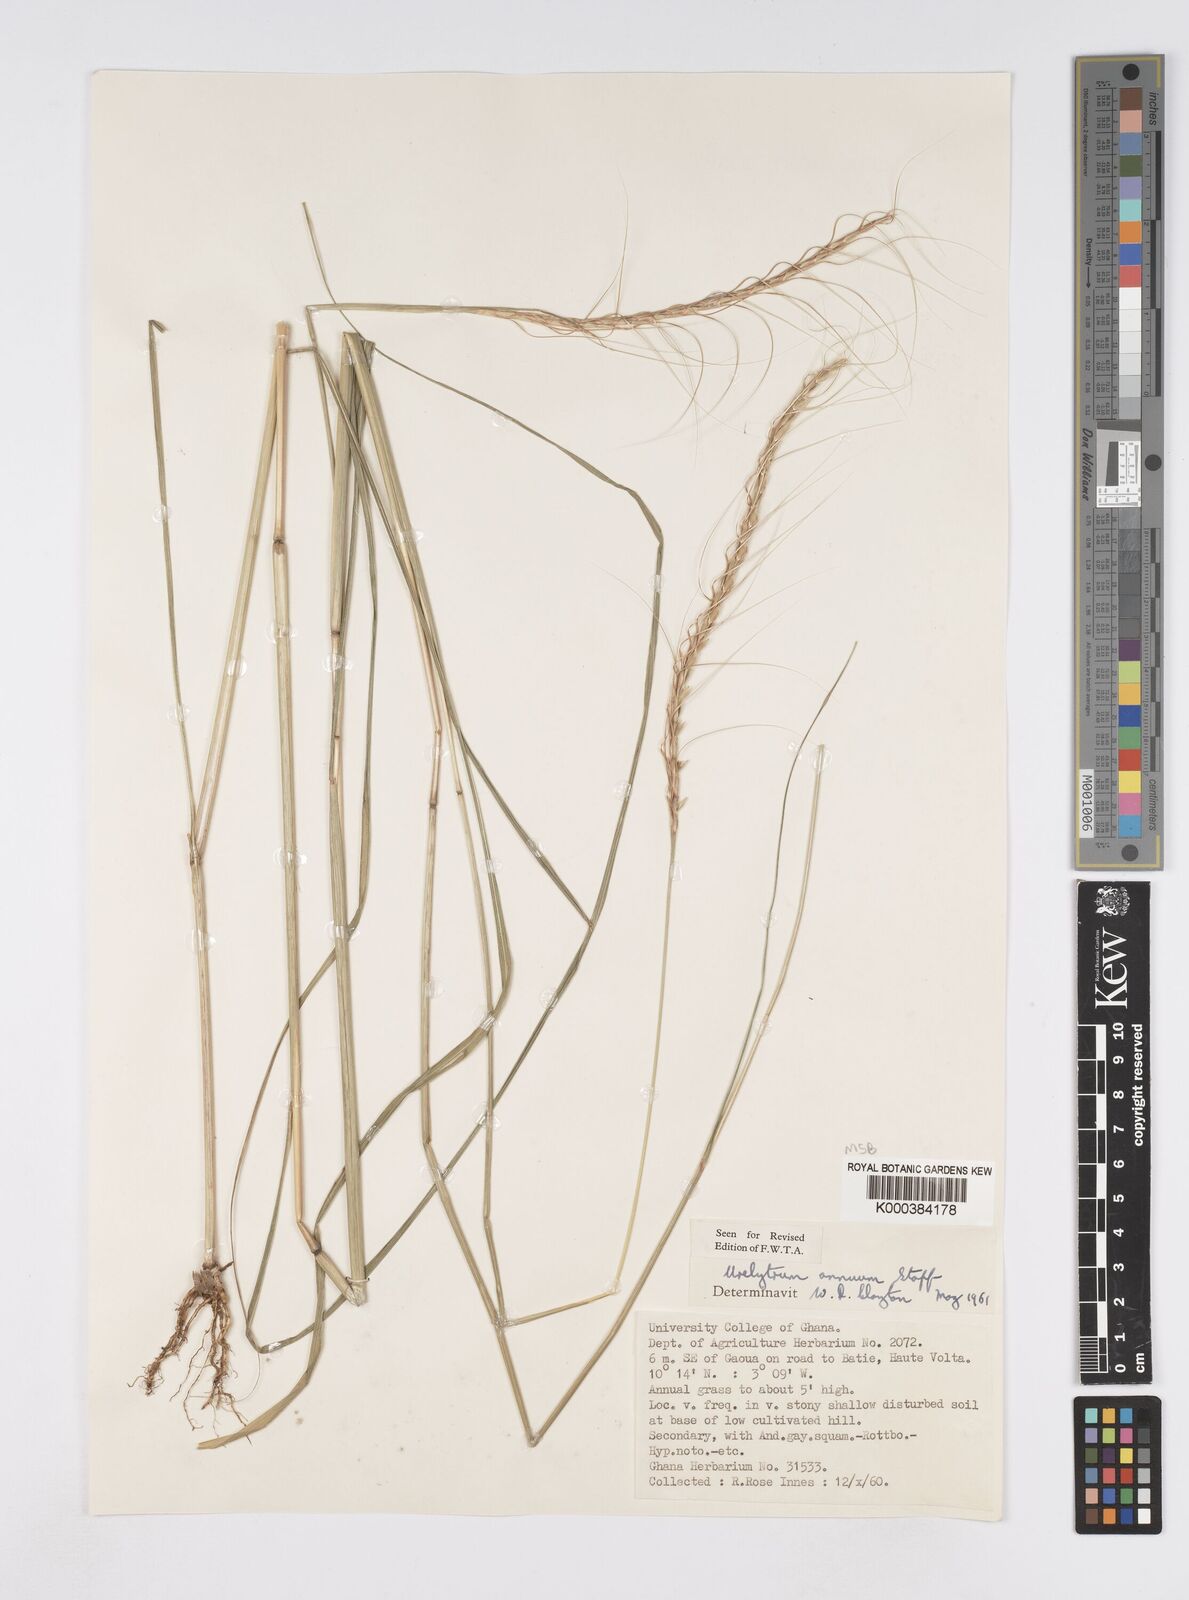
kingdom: Plantae
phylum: Tracheophyta
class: Liliopsida
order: Poales
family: Poaceae
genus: Urelytrum
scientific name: Urelytrum annuum
